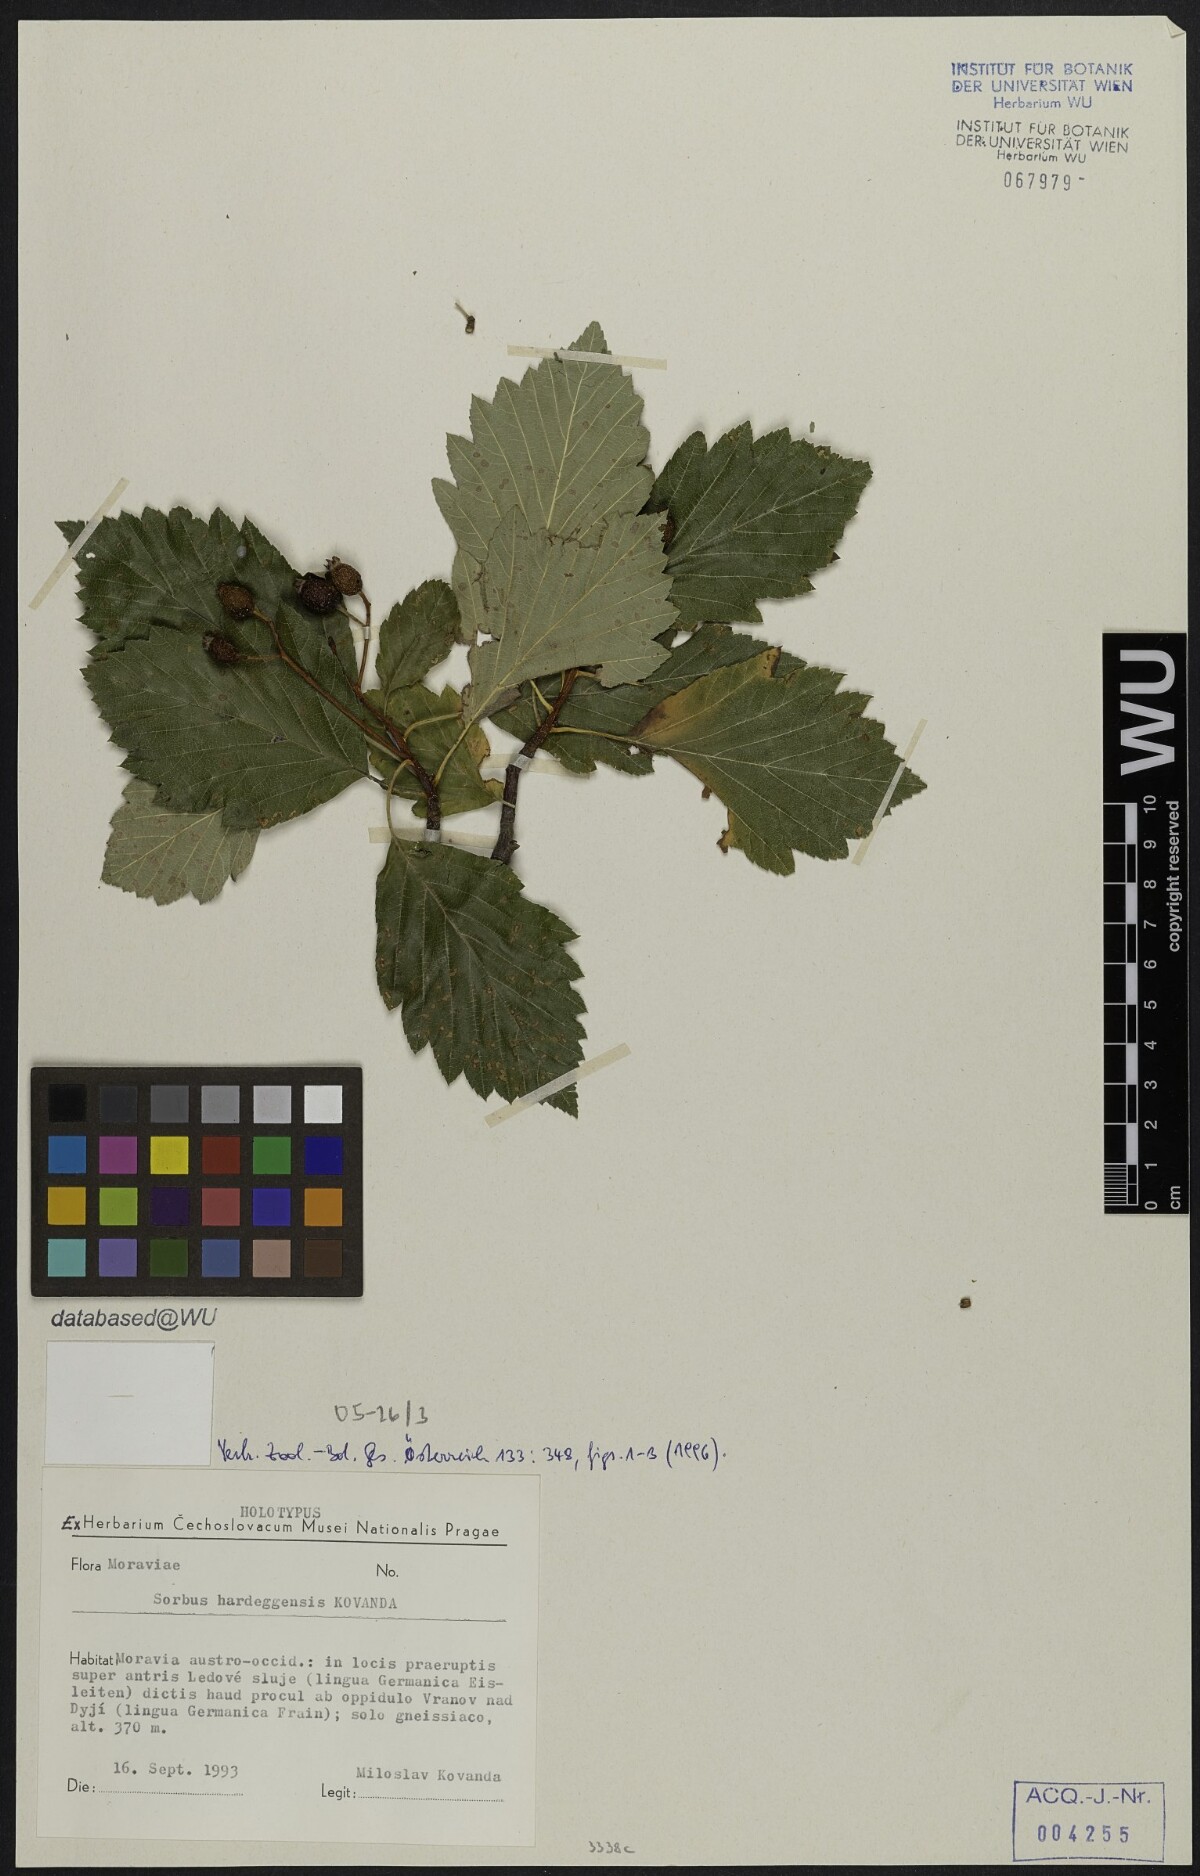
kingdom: Plantae
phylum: Tracheophyta
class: Magnoliopsida
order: Rosales
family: Rosaceae
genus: Karpatiosorbus
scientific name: Karpatiosorbus hybrida
